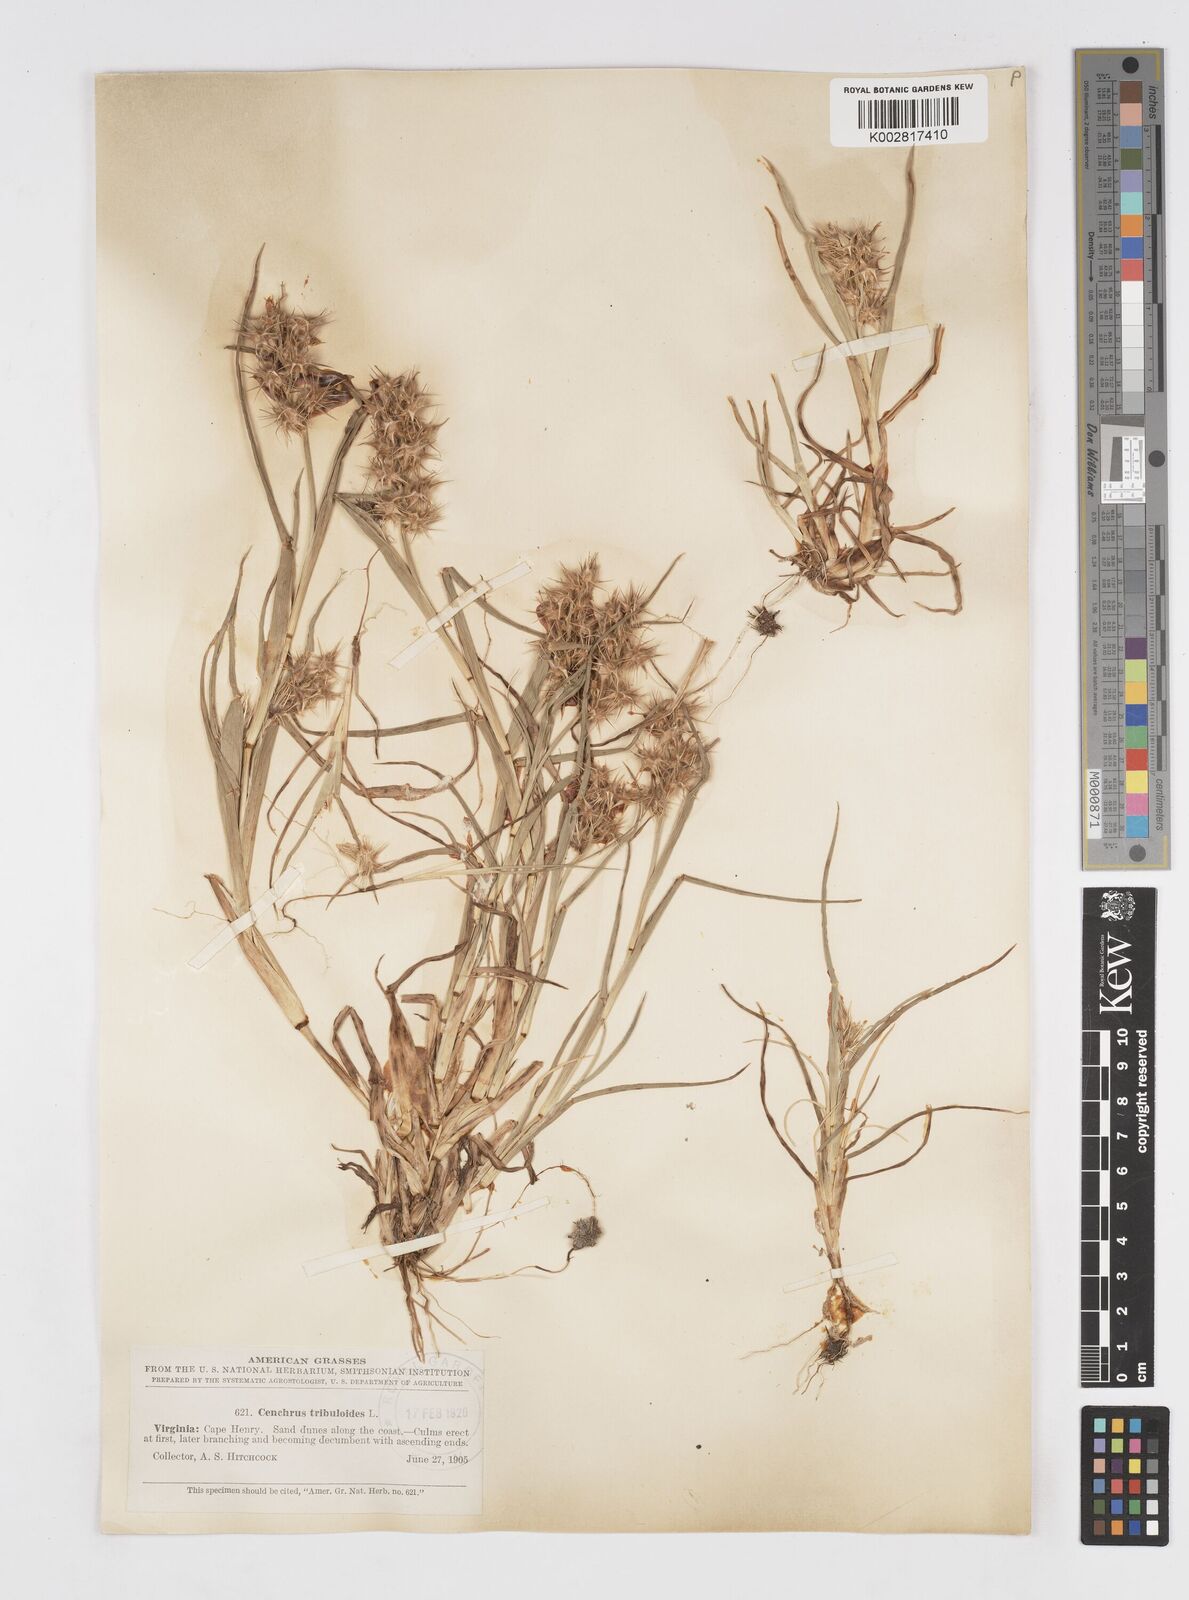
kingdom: Plantae
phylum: Tracheophyta
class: Liliopsida
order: Poales
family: Poaceae
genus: Cenchrus
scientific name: Cenchrus tribuloides
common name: Dune sandbur
